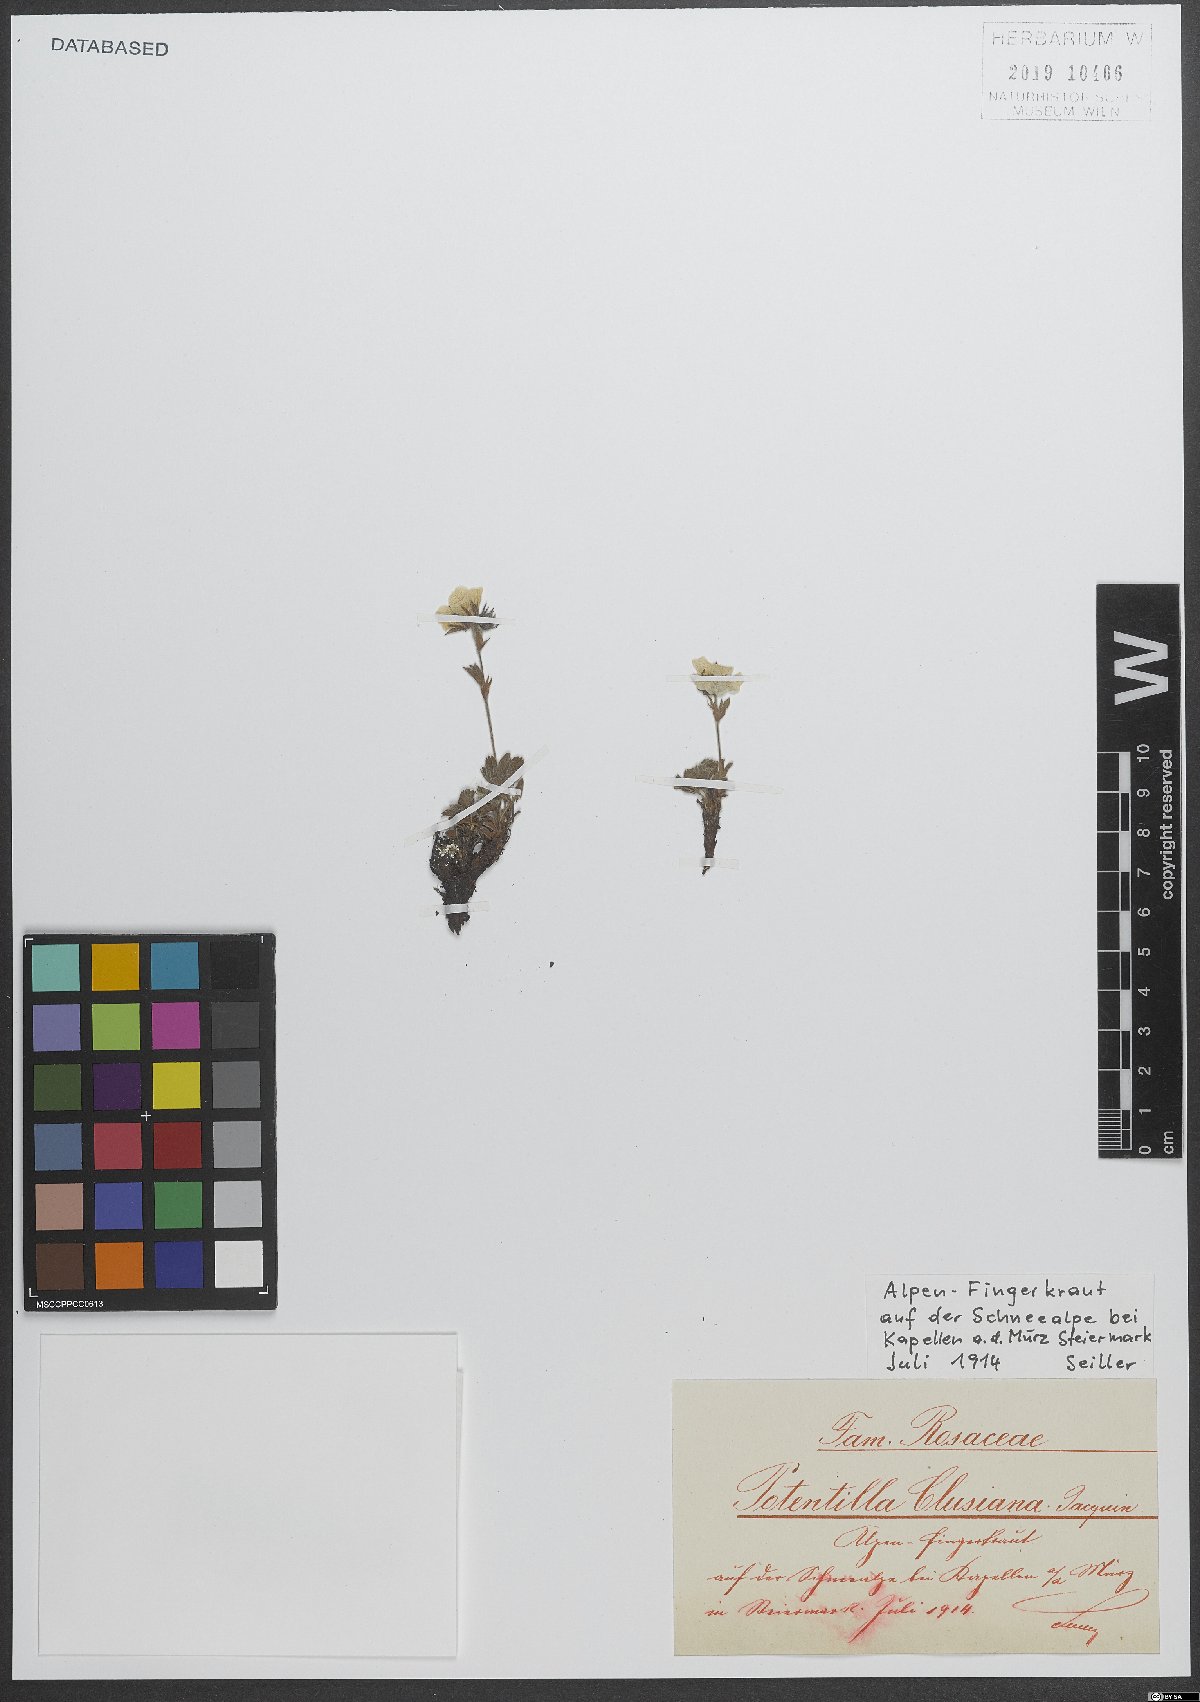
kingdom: Plantae
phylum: Tracheophyta
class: Magnoliopsida
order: Rosales
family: Rosaceae
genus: Potentilla
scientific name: Potentilla clusiana
